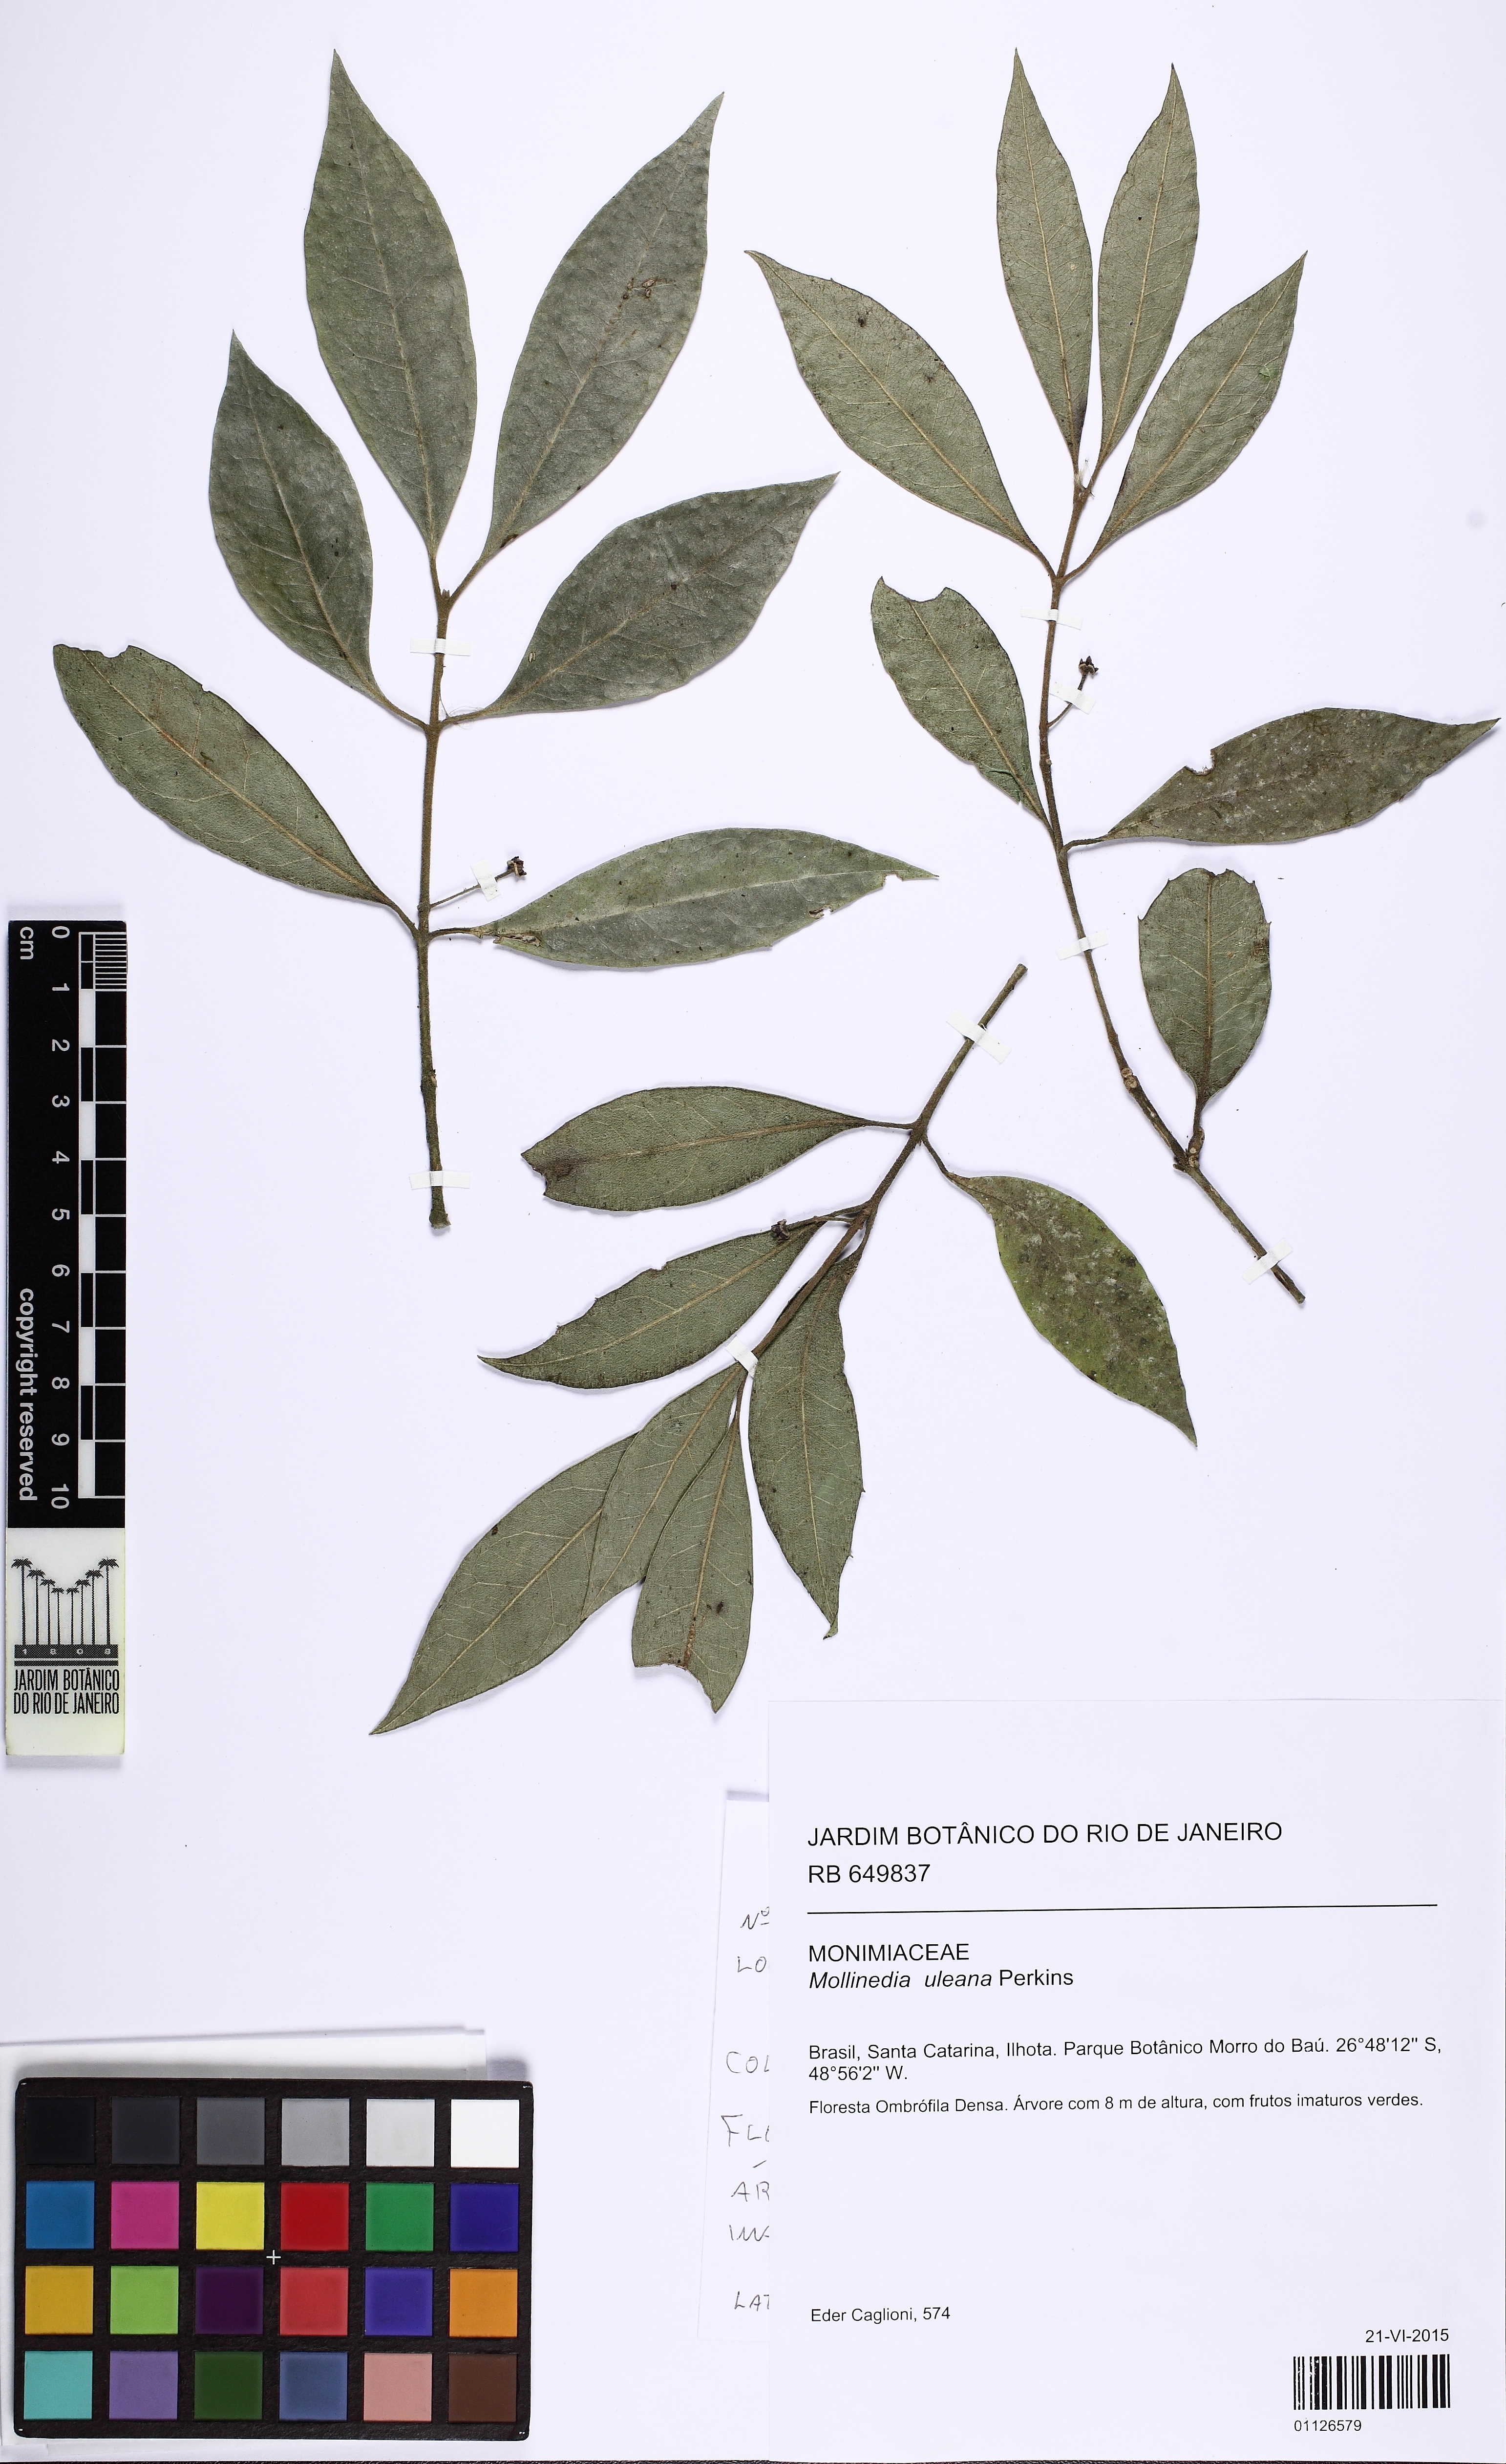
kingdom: Plantae
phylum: Tracheophyta
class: Magnoliopsida
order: Laurales
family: Monimiaceae
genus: Mollinedia
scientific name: Mollinedia triflora
